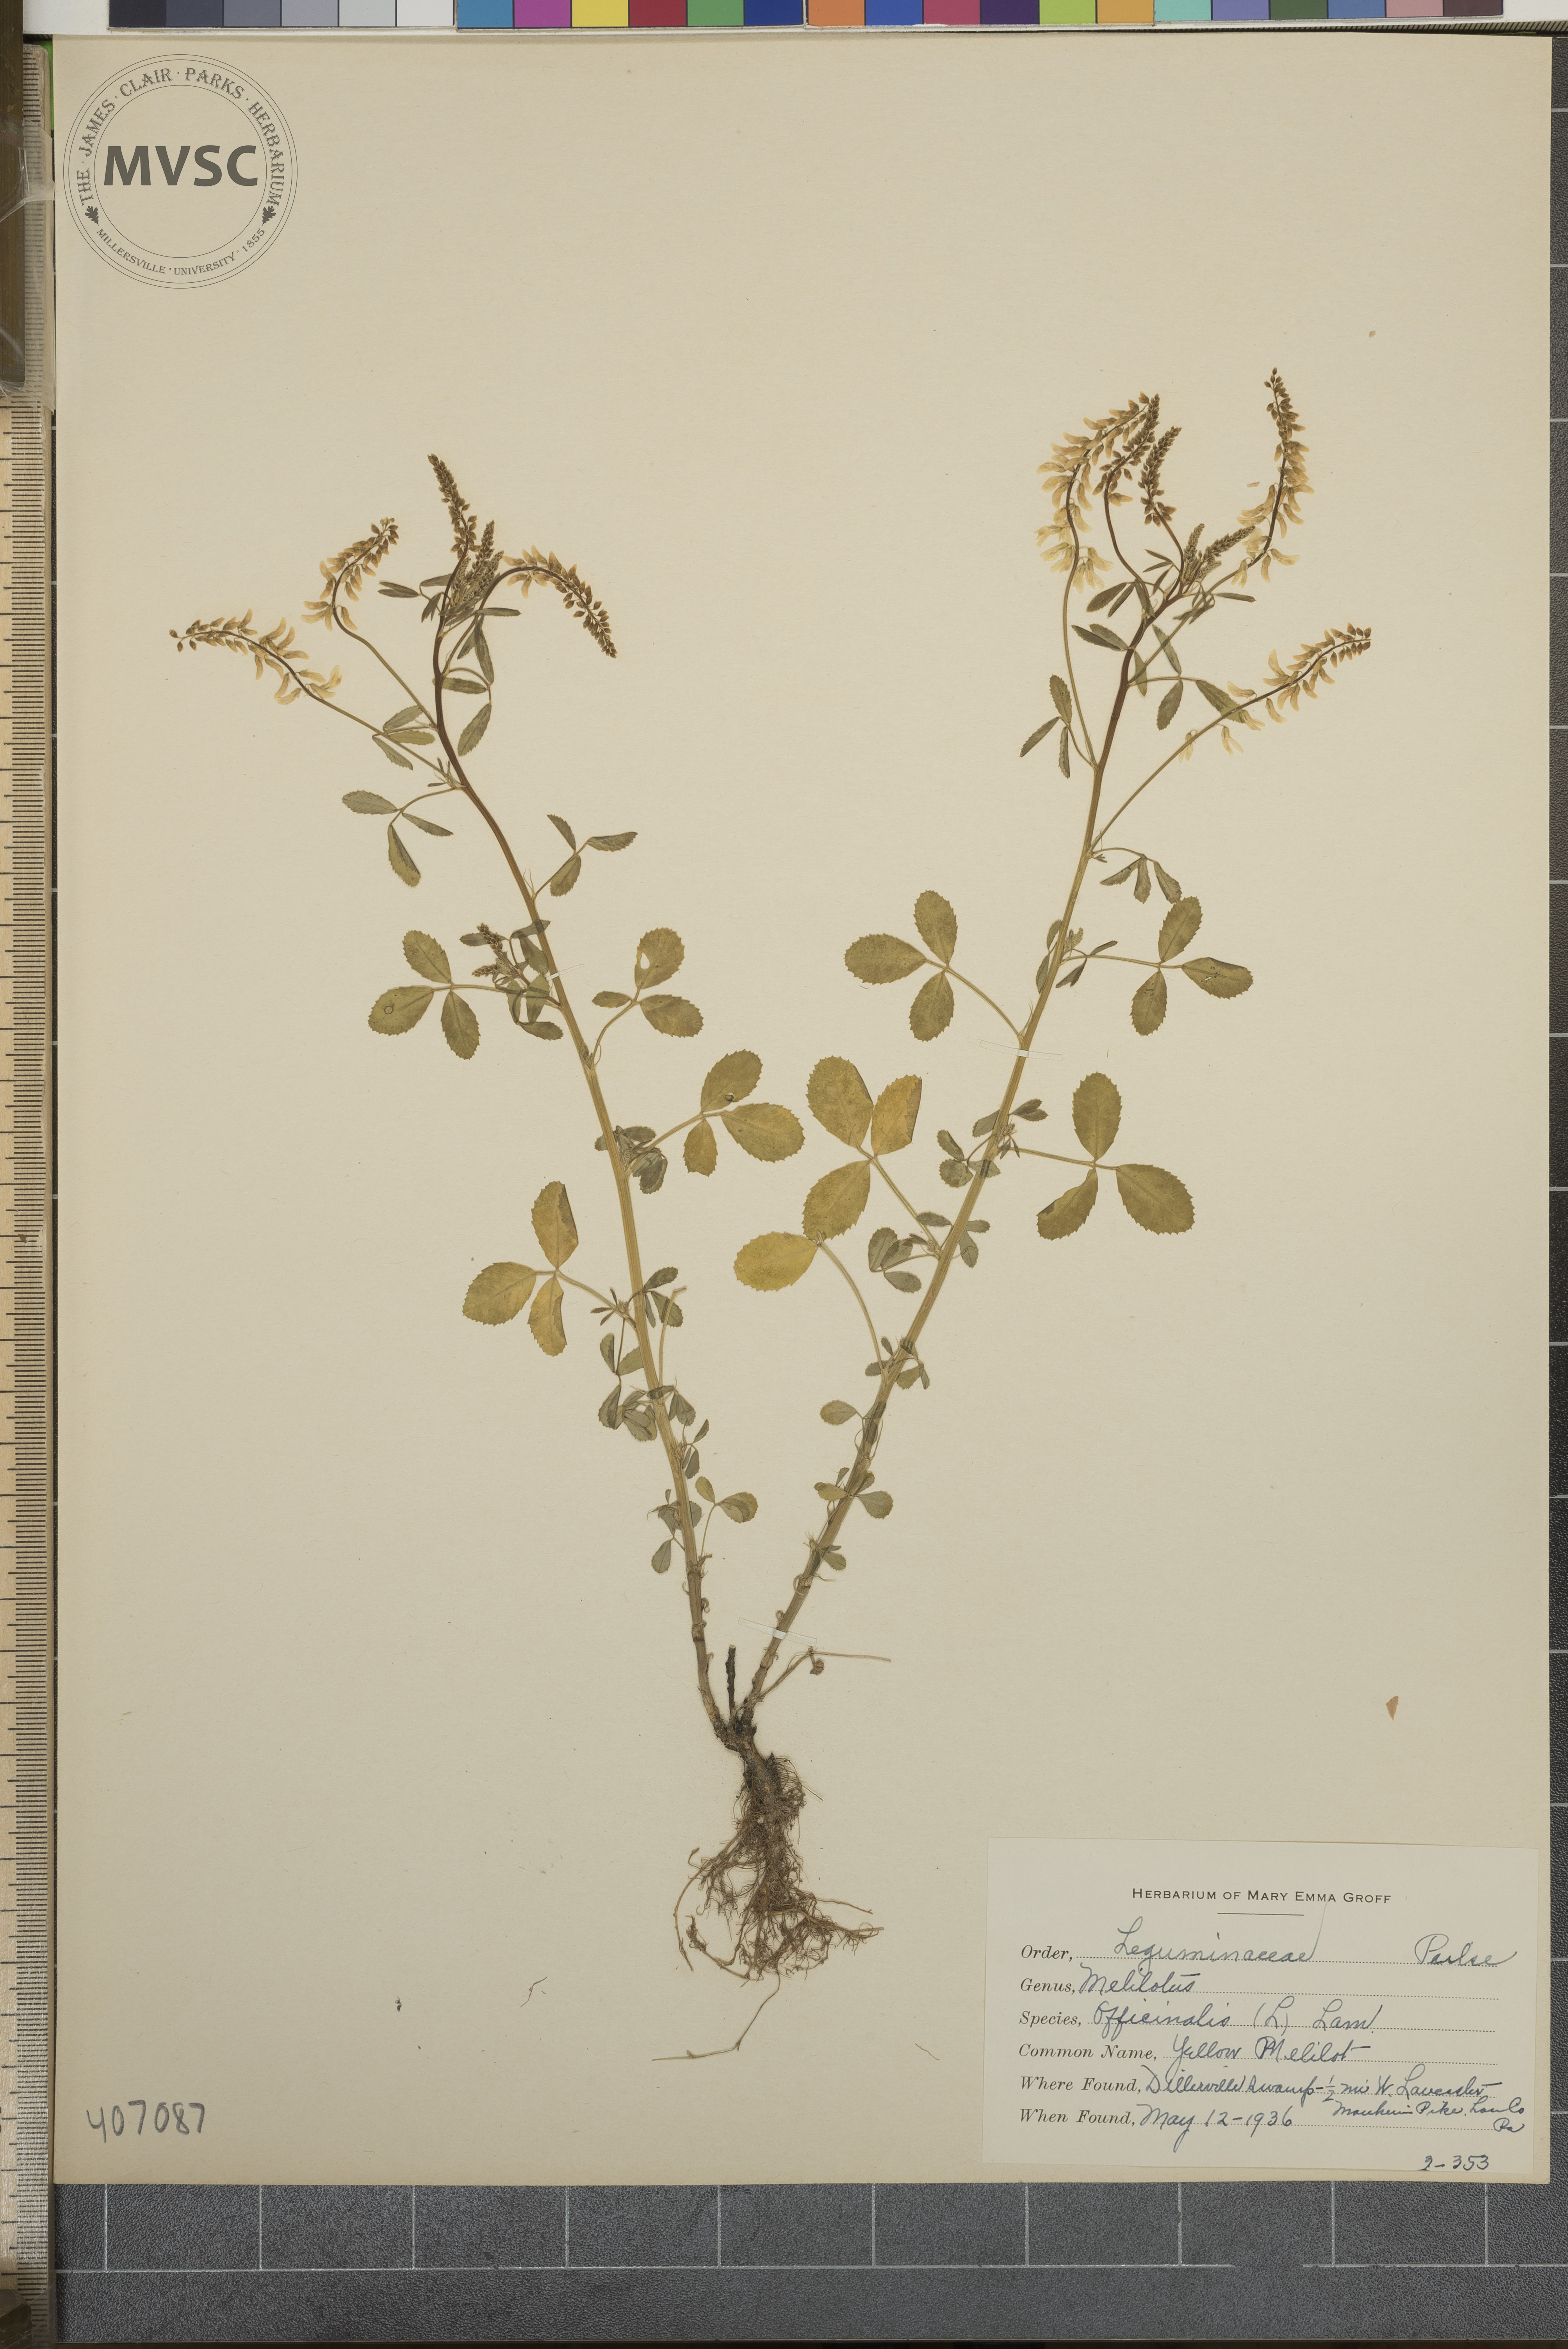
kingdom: Plantae
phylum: Tracheophyta
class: Magnoliopsida
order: Fabales
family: Fabaceae
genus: Melilotus
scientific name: Melilotus officinalis
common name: Yellow Melilot
